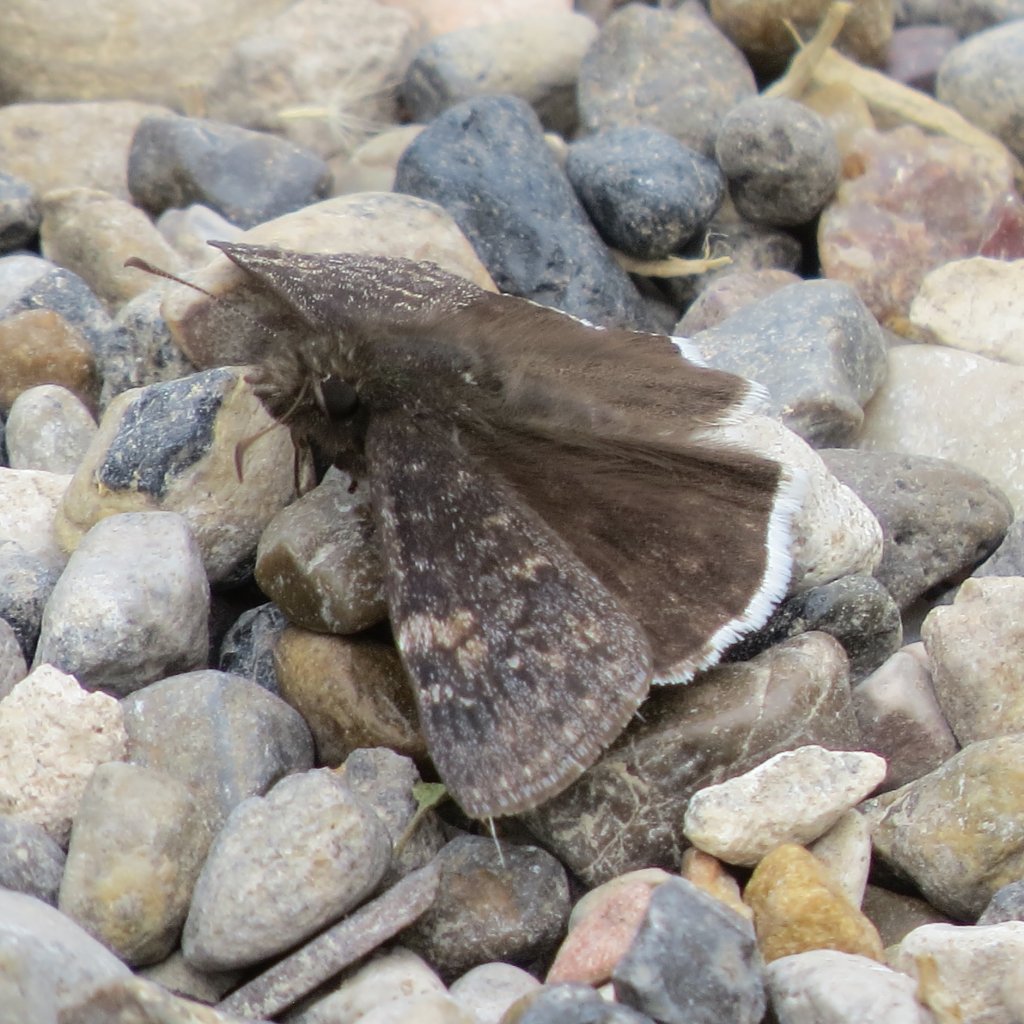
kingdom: Animalia
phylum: Arthropoda
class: Insecta
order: Lepidoptera
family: Hesperiidae
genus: Erynnis
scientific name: Erynnis funeralis
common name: Funereal Duskywing
